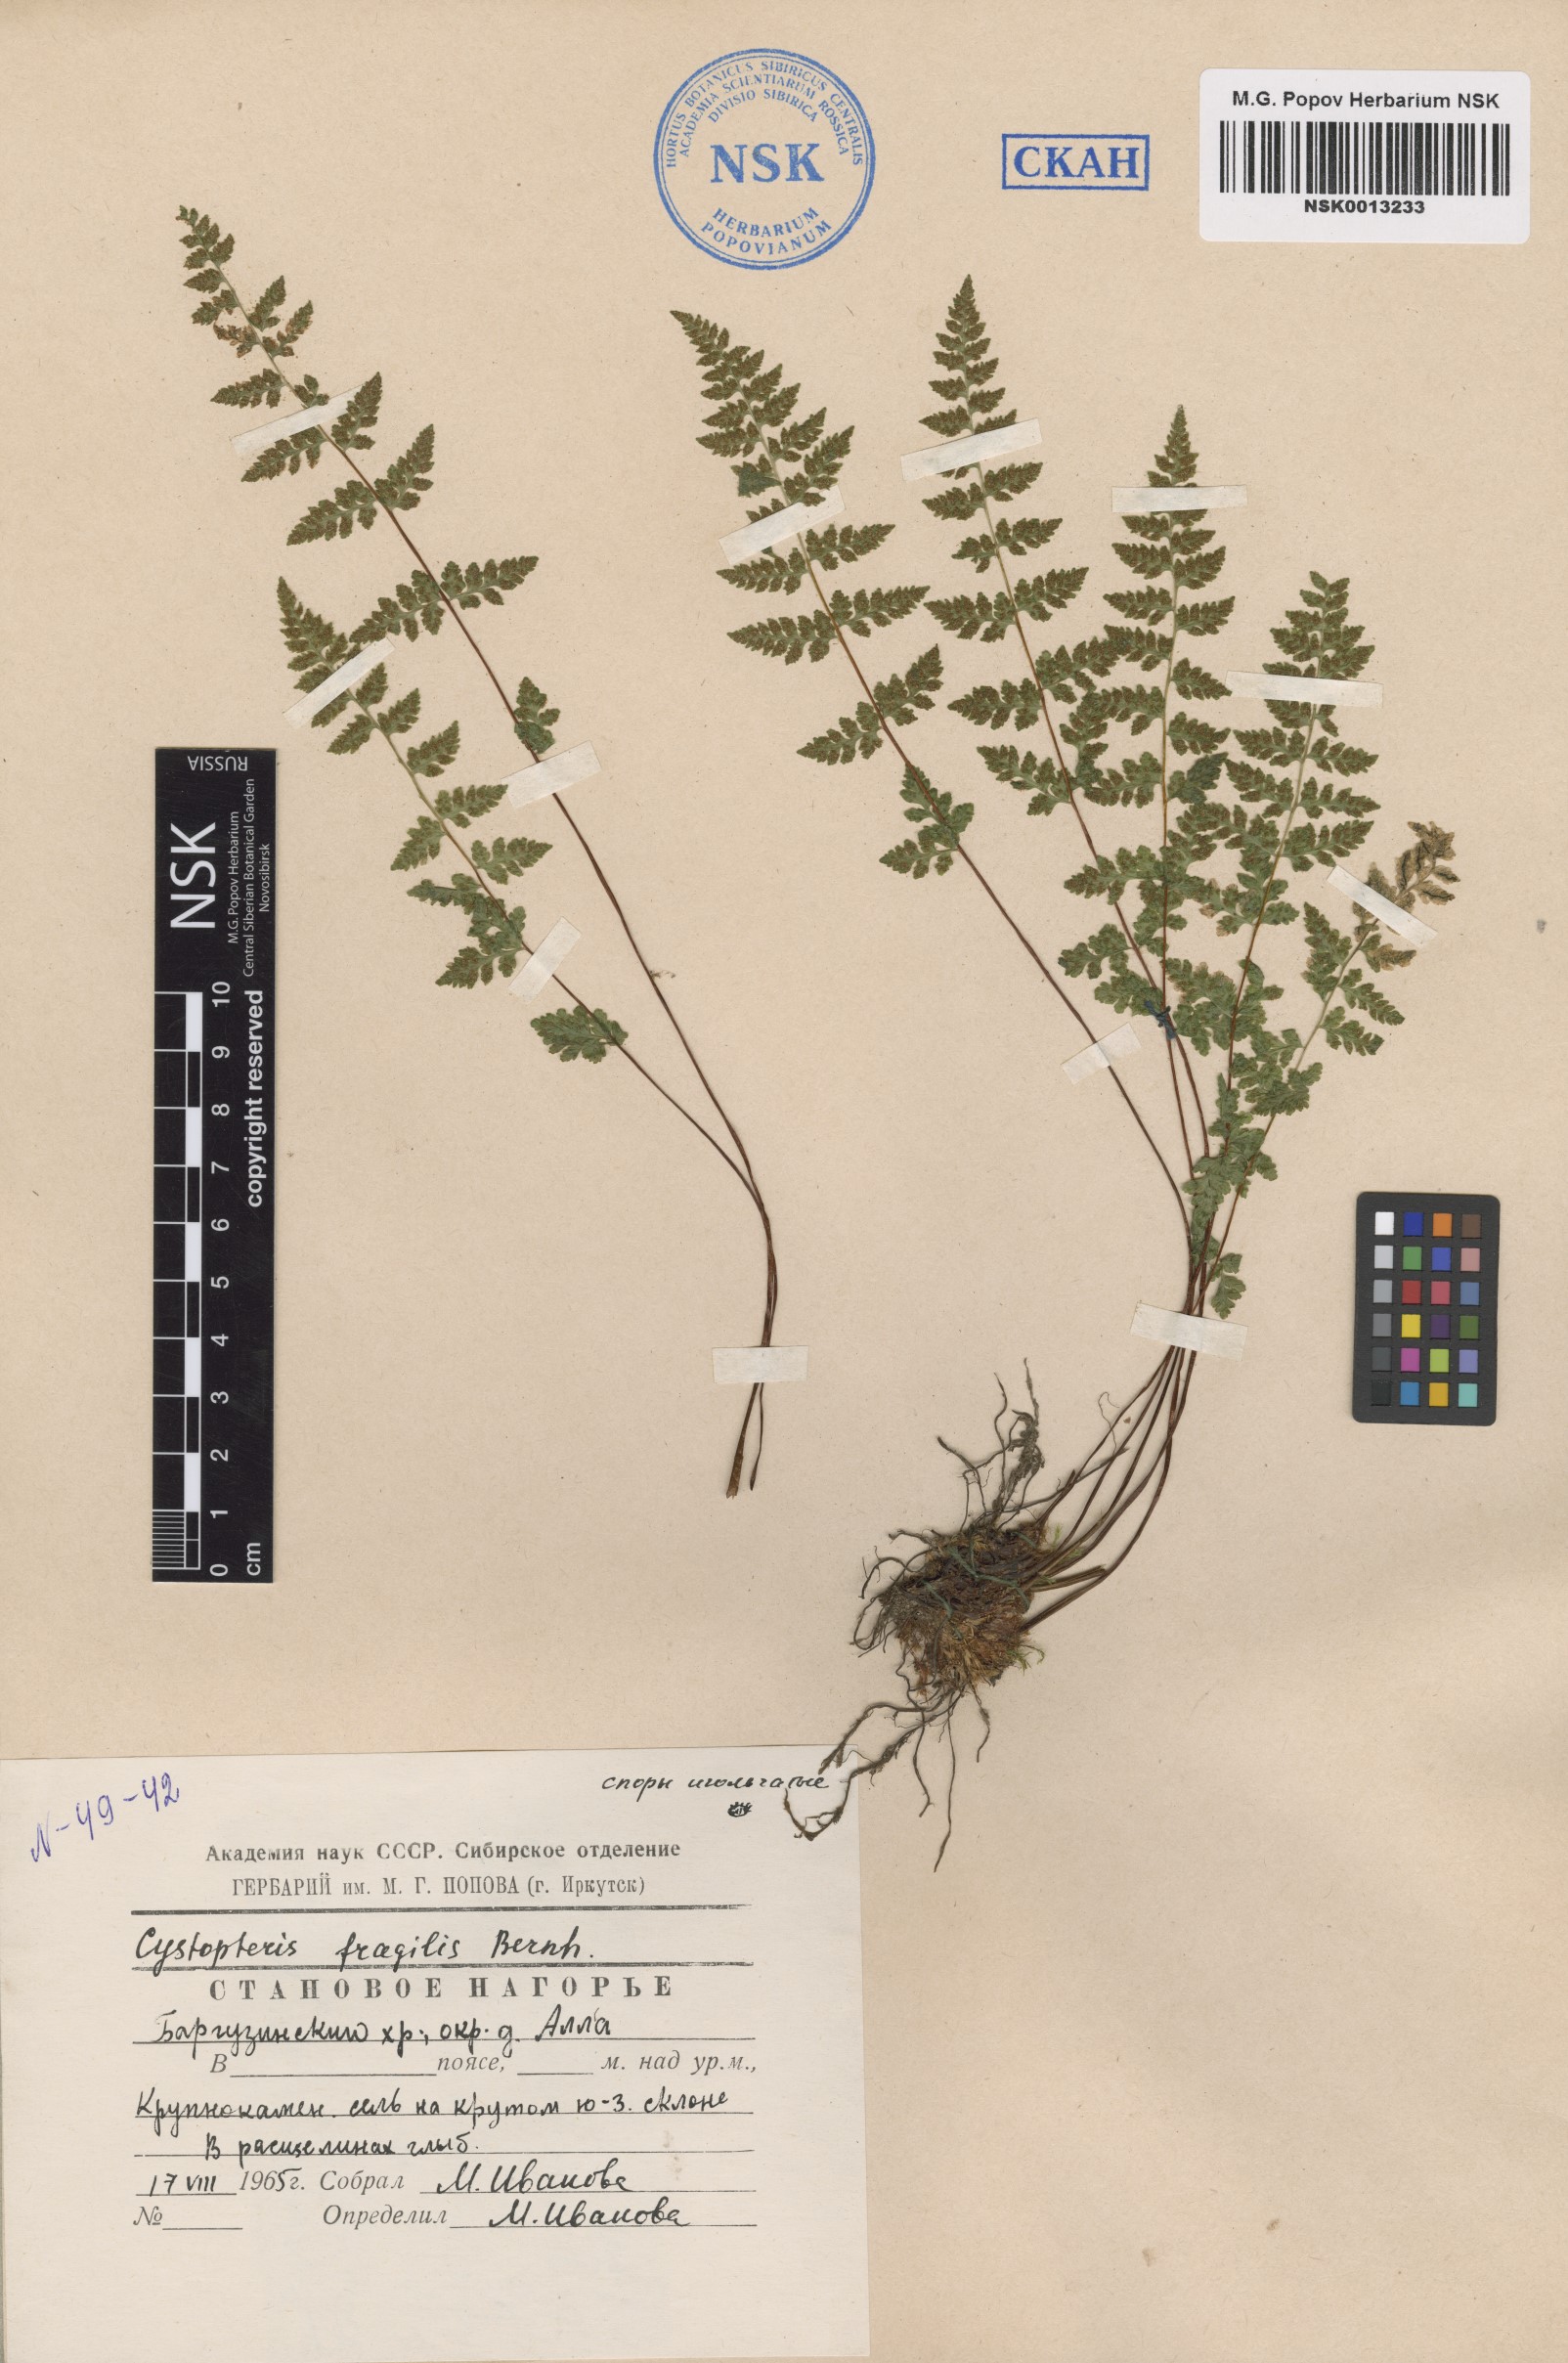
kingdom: Plantae
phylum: Tracheophyta
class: Polypodiopsida
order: Polypodiales
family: Cystopteridaceae
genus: Cystopteris
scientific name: Cystopteris fragilis
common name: Brittle bladder fern
